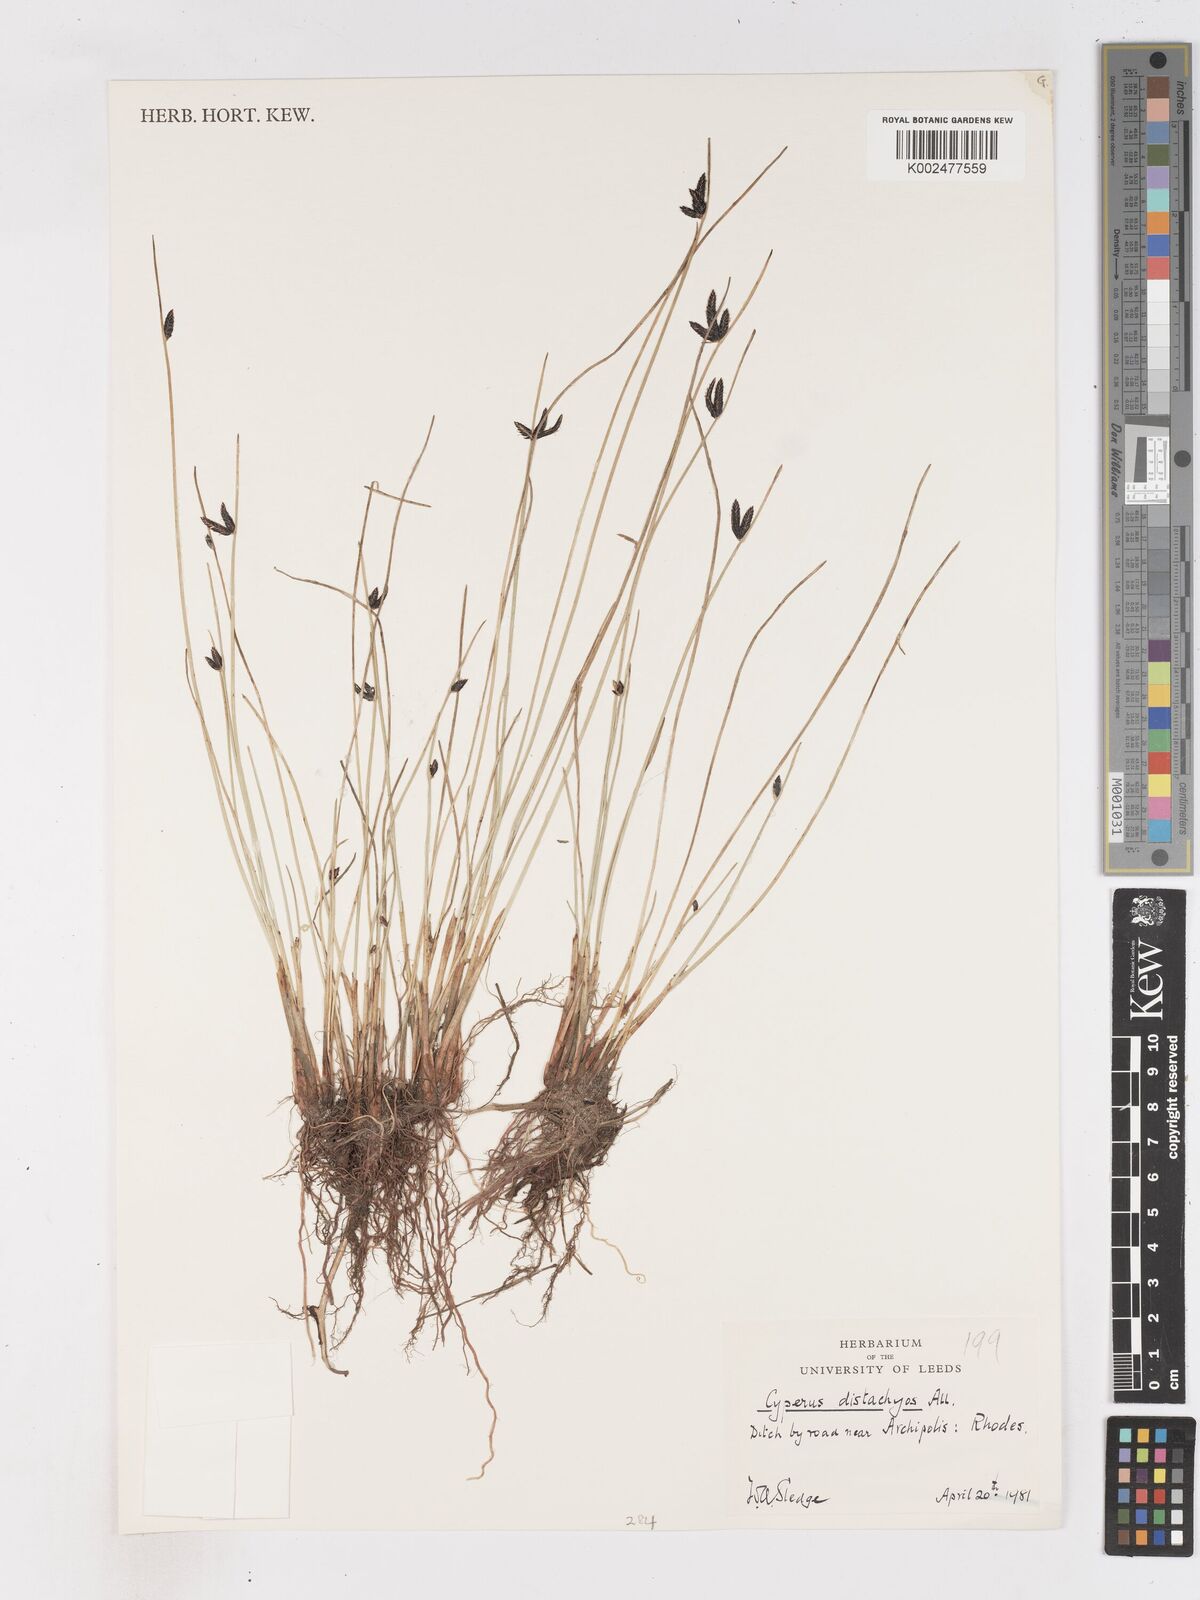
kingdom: Plantae
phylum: Tracheophyta
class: Liliopsida
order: Poales
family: Cyperaceae
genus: Cyperus
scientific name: Cyperus laevigatus
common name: Smooth flat sedge
